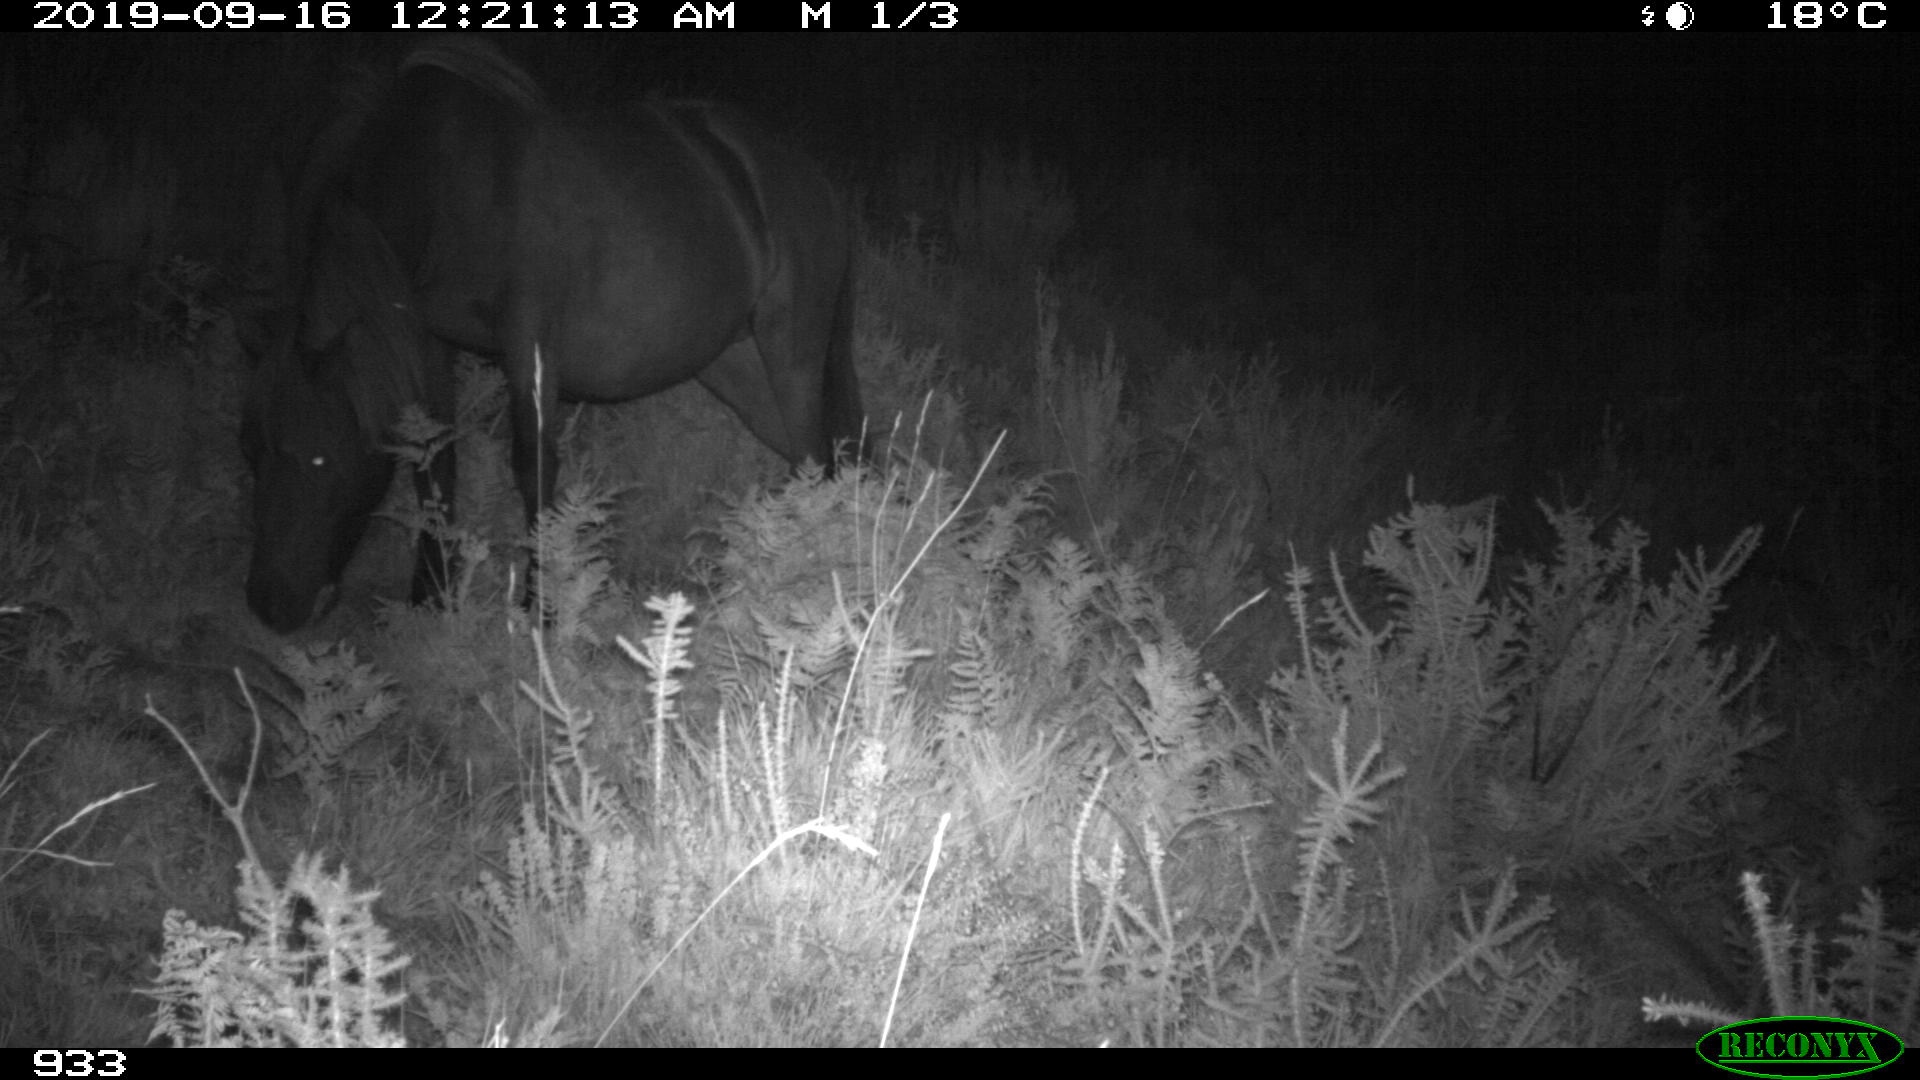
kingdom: Animalia
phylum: Chordata
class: Mammalia
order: Perissodactyla
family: Equidae
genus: Equus
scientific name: Equus caballus
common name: Horse
